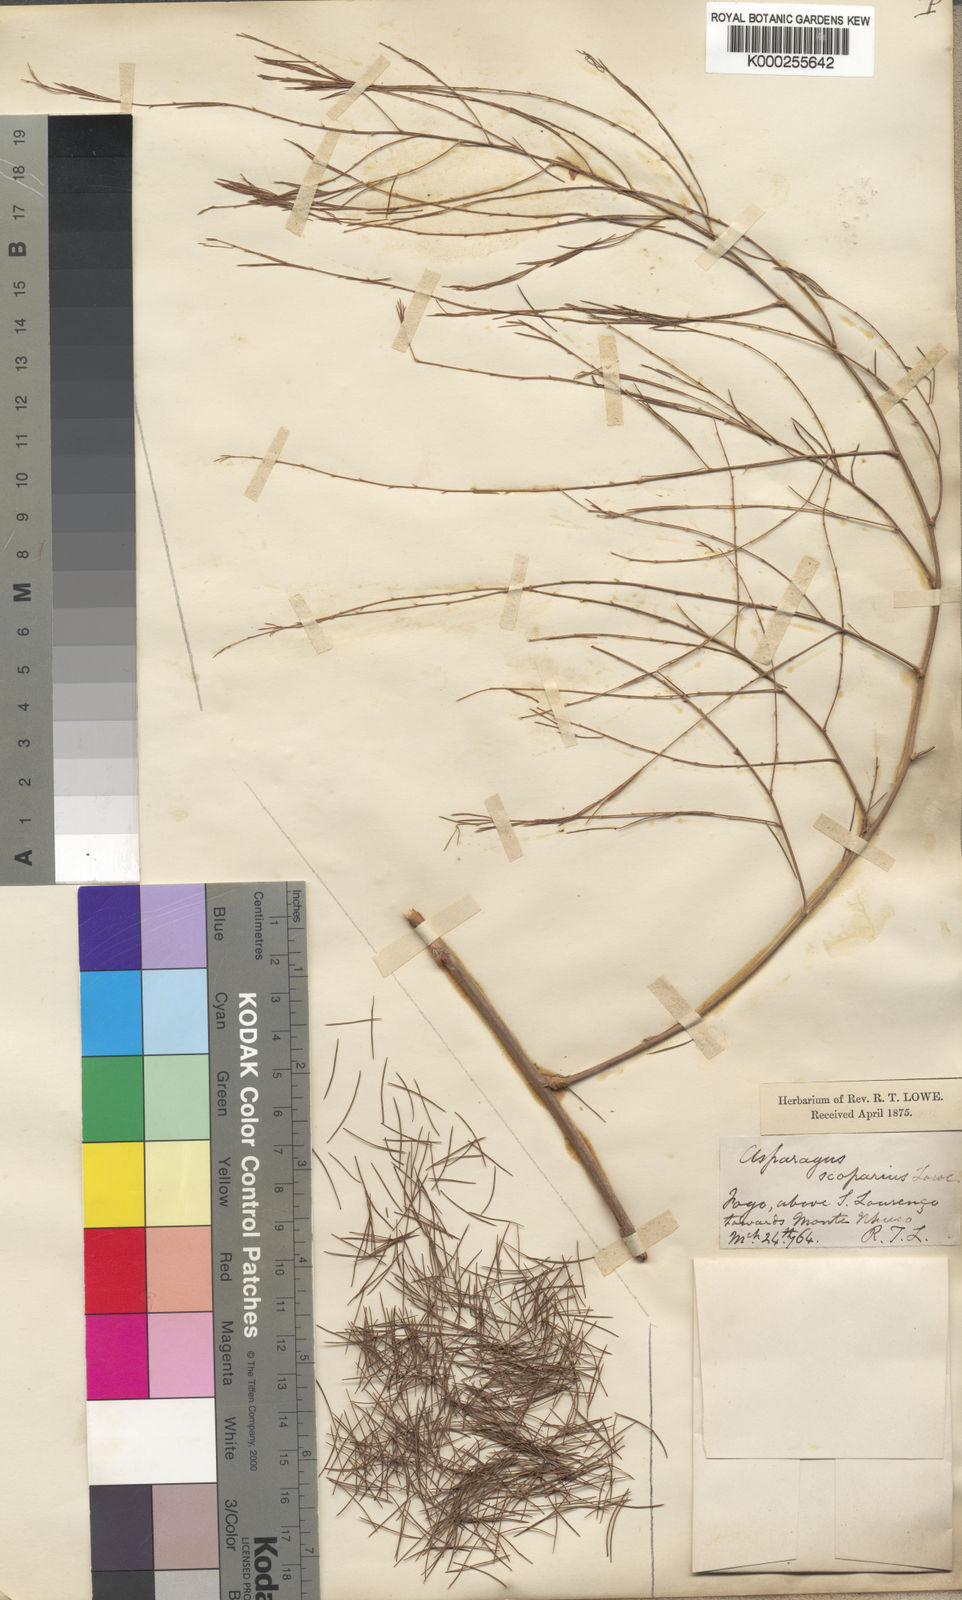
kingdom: Plantae
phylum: Tracheophyta
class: Liliopsida
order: Asparagales
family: Asparagaceae
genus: Asparagus
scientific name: Asparagus scoparius
